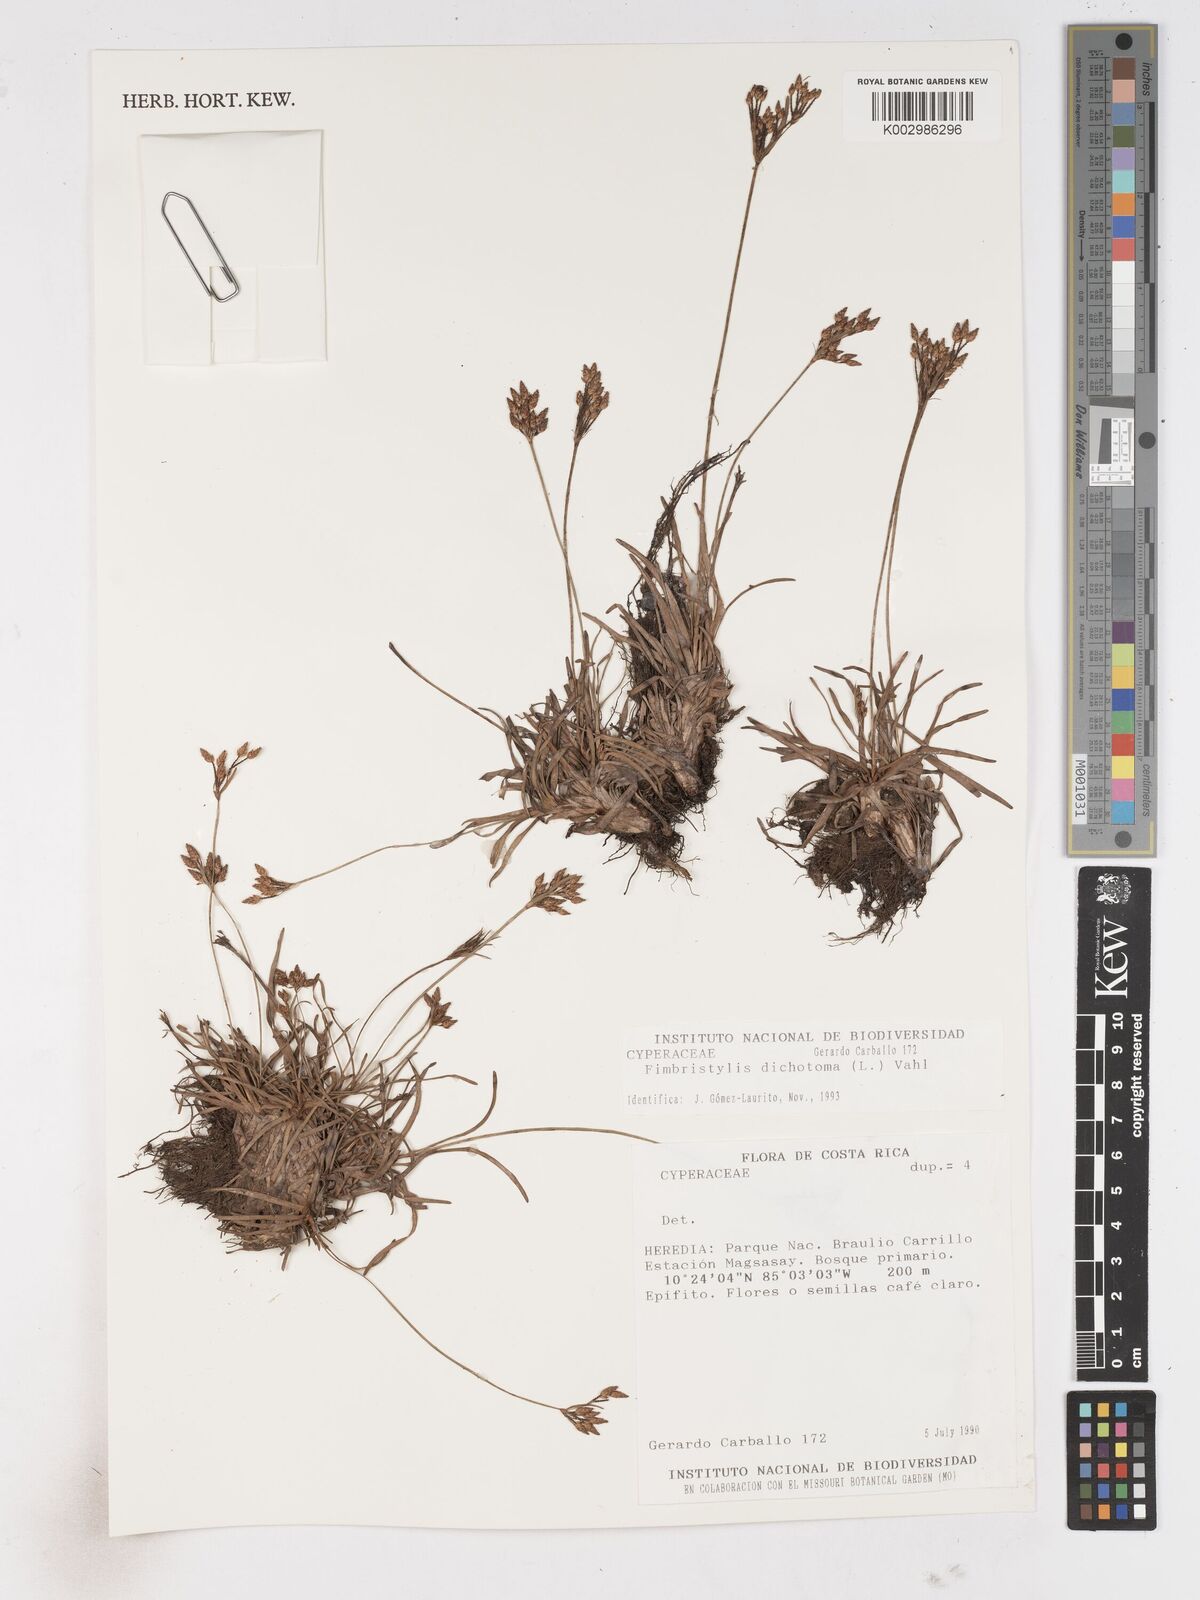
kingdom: Plantae
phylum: Tracheophyta
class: Liliopsida
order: Poales
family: Cyperaceae
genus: Fimbristylis
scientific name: Fimbristylis dichotoma
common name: Forked fimbry
